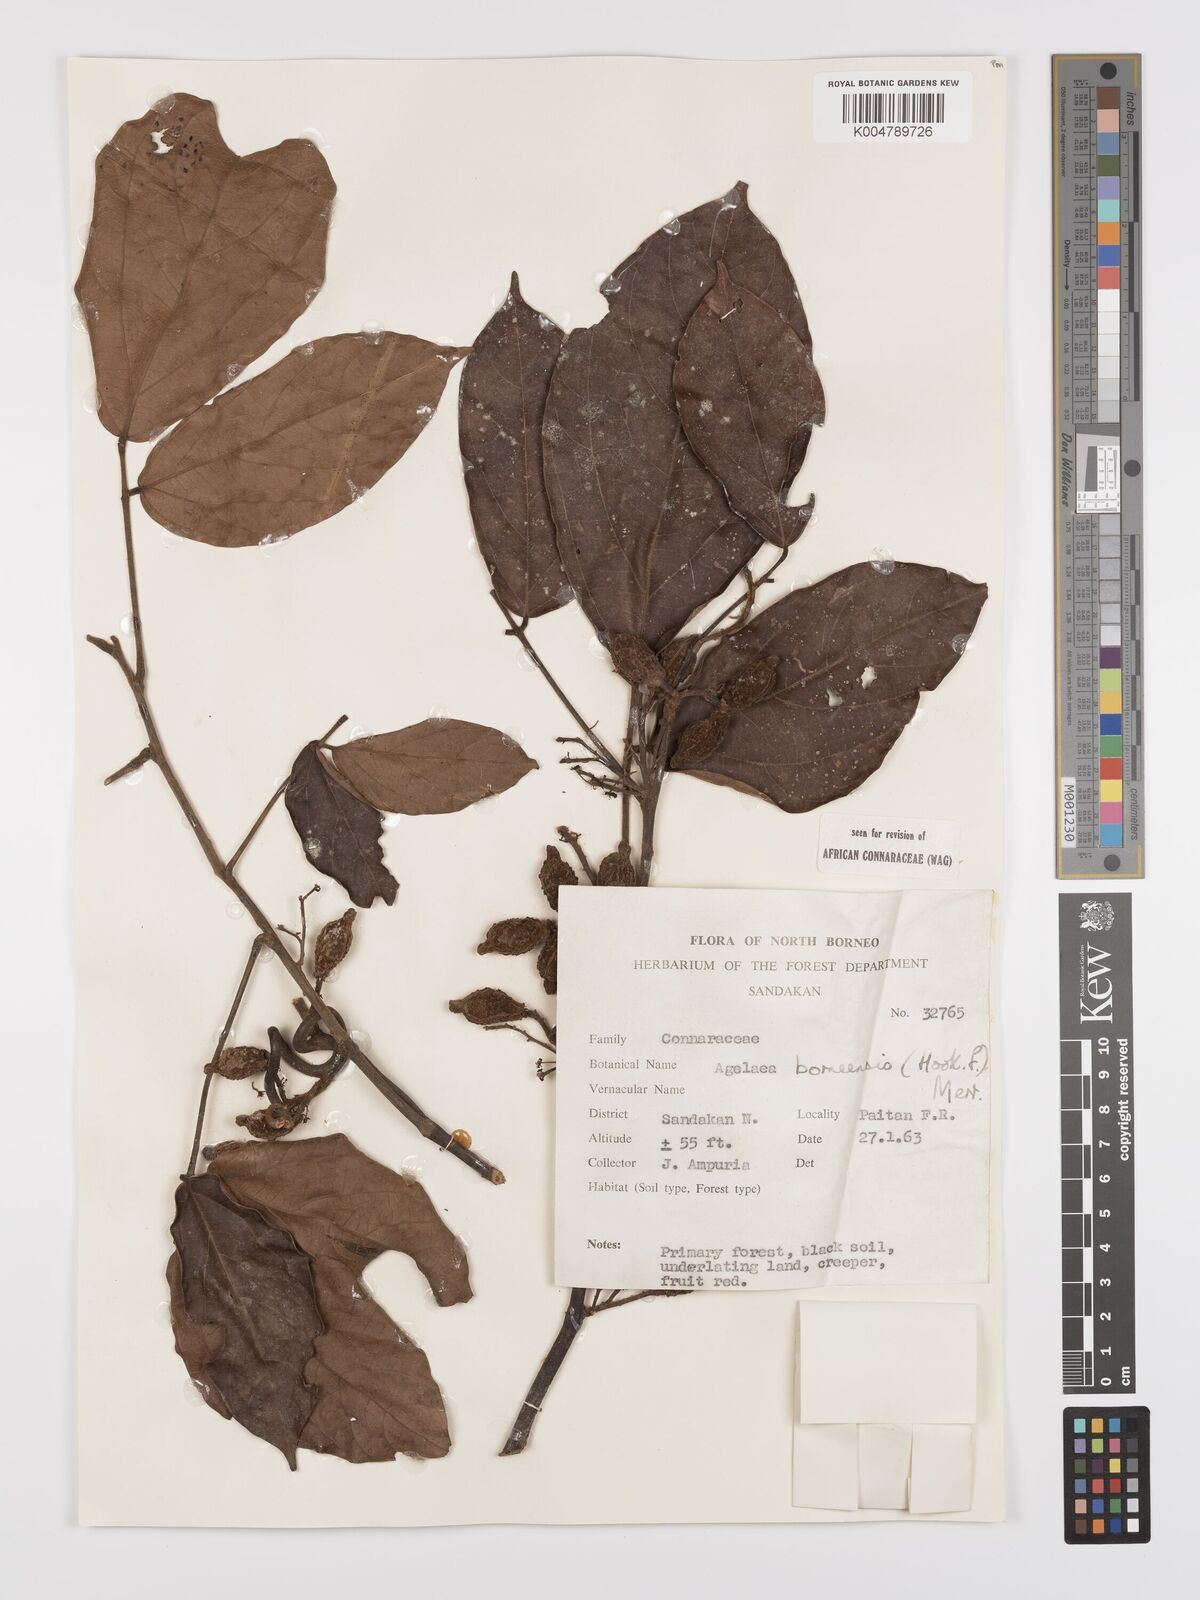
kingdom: Plantae
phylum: Tracheophyta
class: Magnoliopsida
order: Oxalidales
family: Connaraceae
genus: Agelaea
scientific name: Agelaea borneensis
